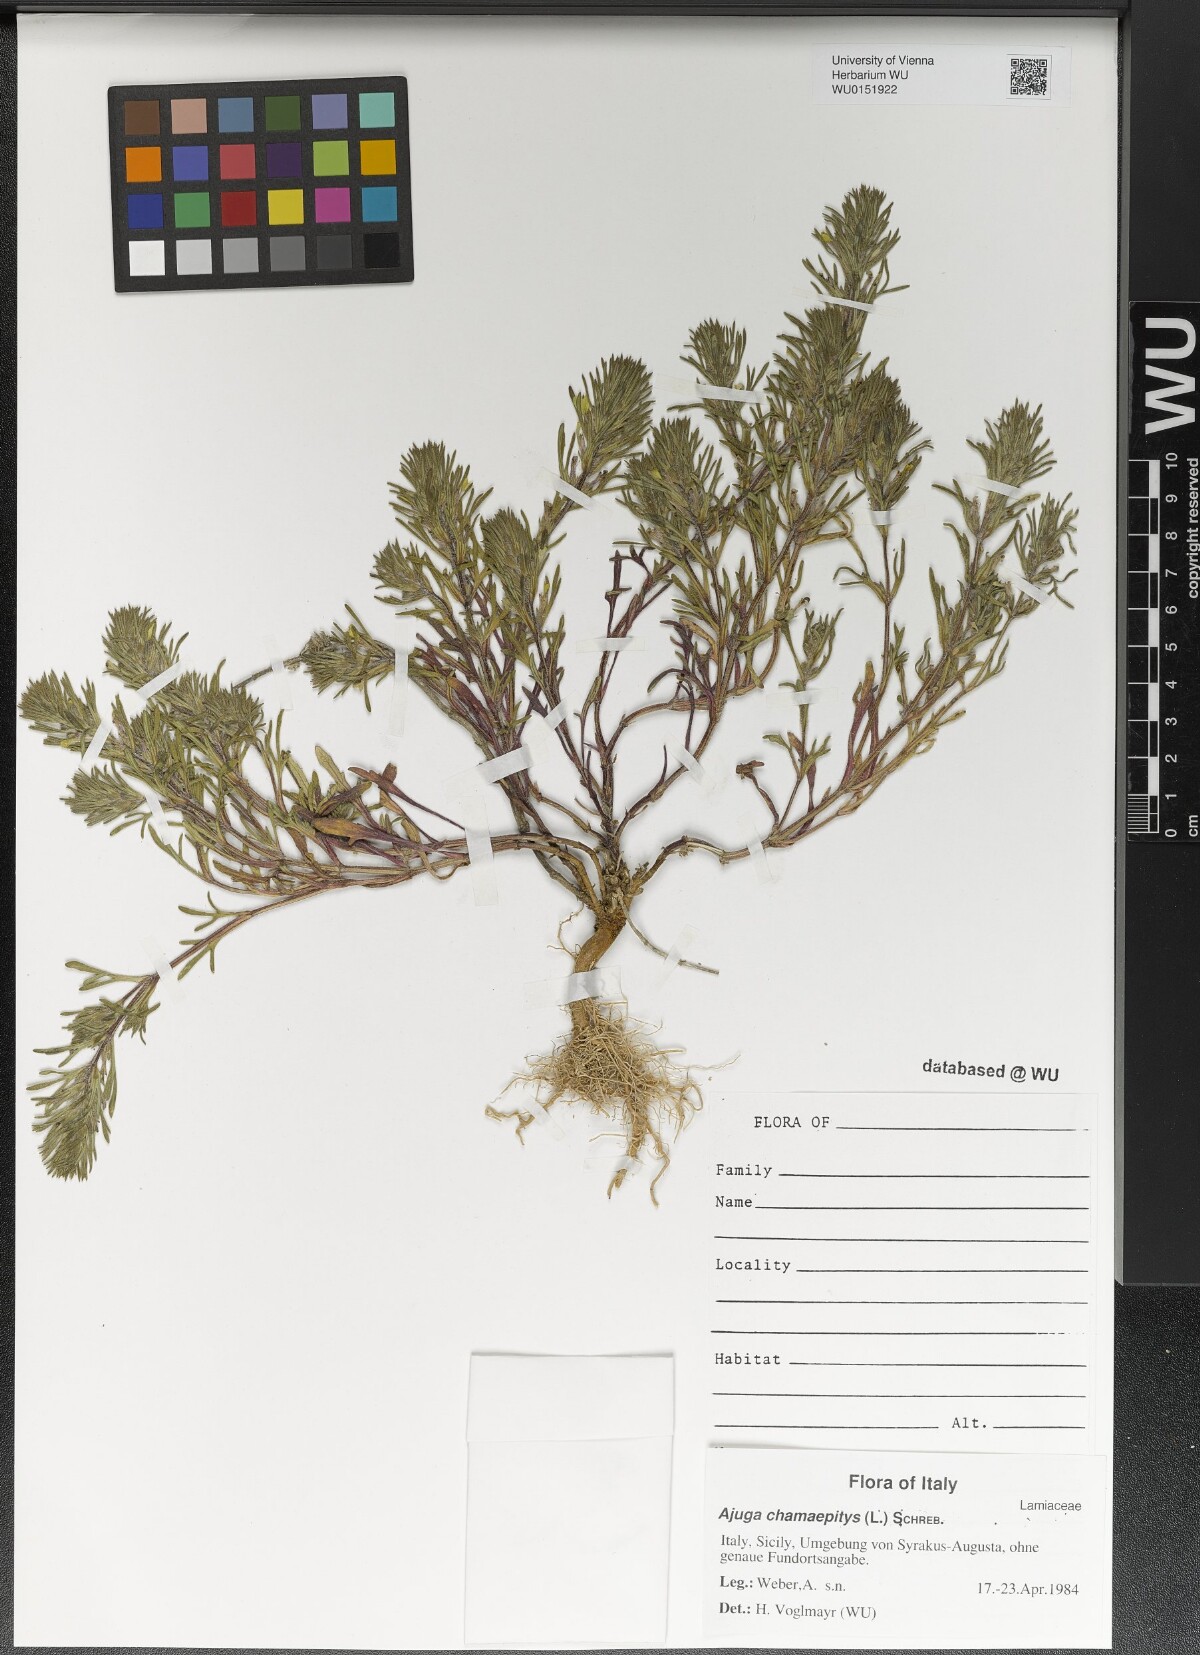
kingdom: Plantae
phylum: Tracheophyta
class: Magnoliopsida
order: Lamiales
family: Lamiaceae
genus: Ajuga
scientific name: Ajuga chamaepitys
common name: Ground-pine
